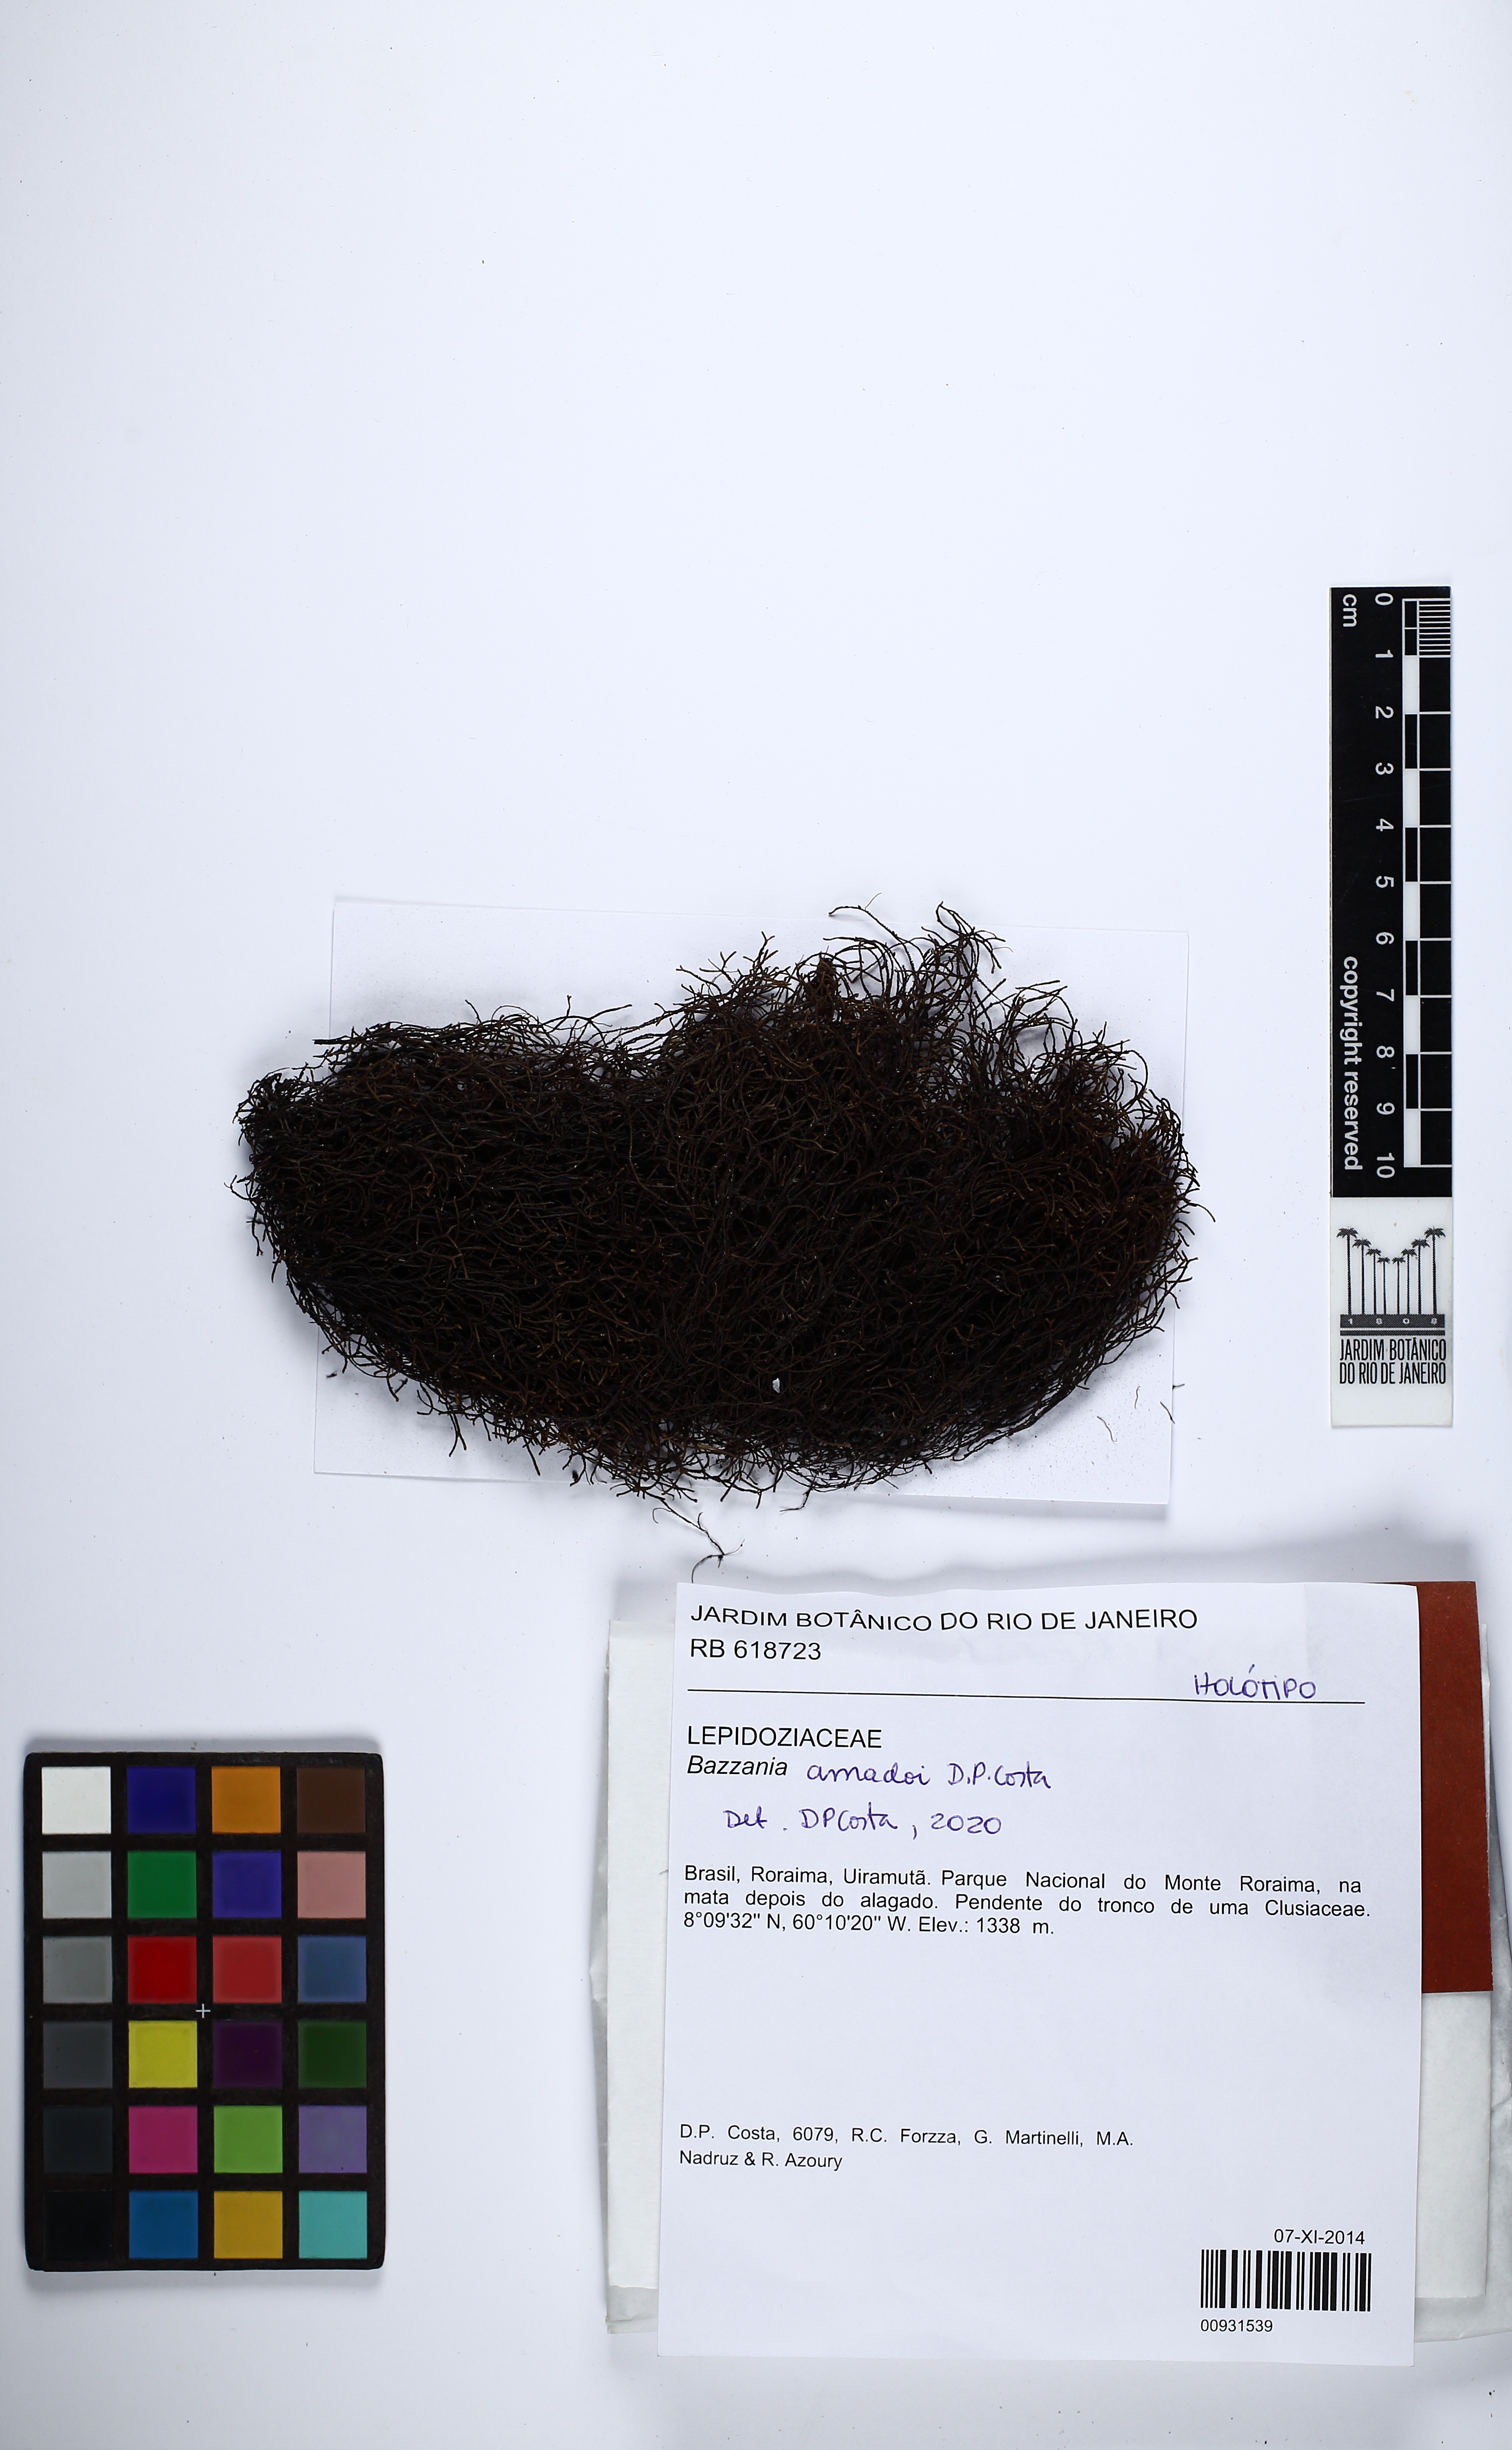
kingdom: Plantae
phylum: Marchantiophyta
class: Jungermanniopsida
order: Jungermanniales
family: Lepidoziaceae
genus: Bazzania
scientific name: Bazzania amadoi
